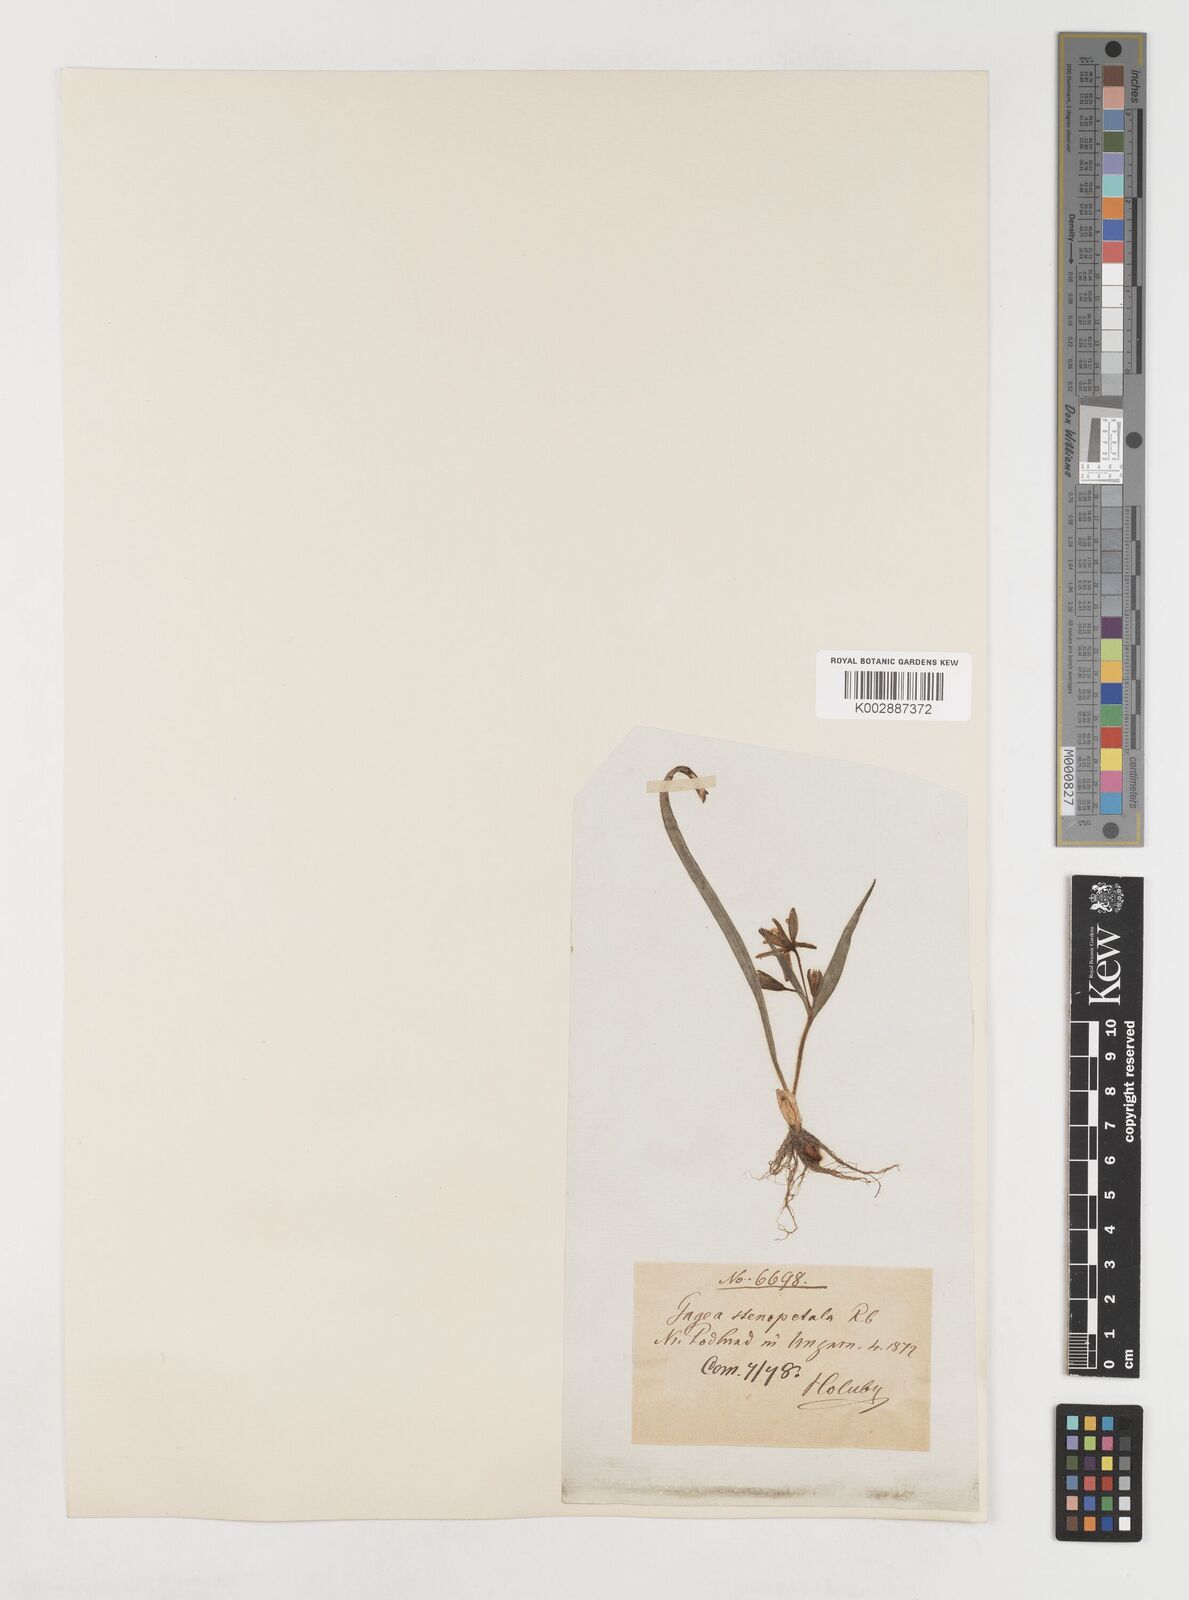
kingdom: Plantae
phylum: Tracheophyta
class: Liliopsida
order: Liliales
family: Liliaceae
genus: Gagea
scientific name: Gagea pratensis
